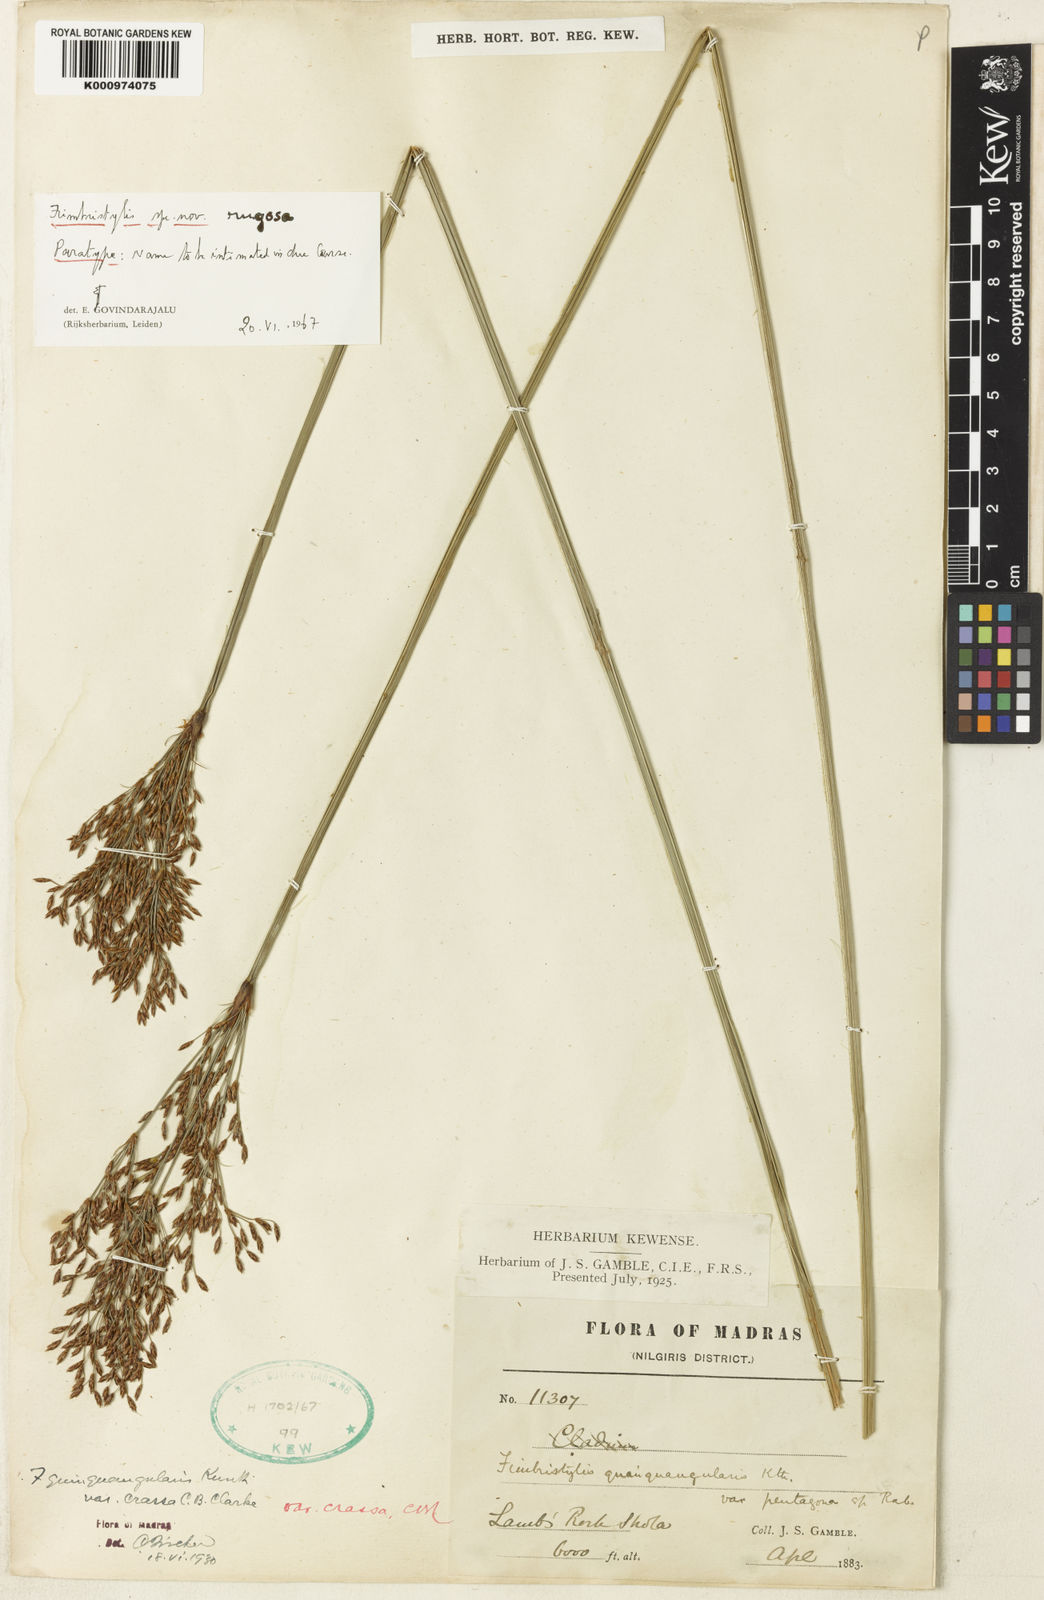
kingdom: Plantae
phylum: Tracheophyta
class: Liliopsida
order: Poales
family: Cyperaceae
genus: Fimbristylis
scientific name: Fimbristylis rugosa
